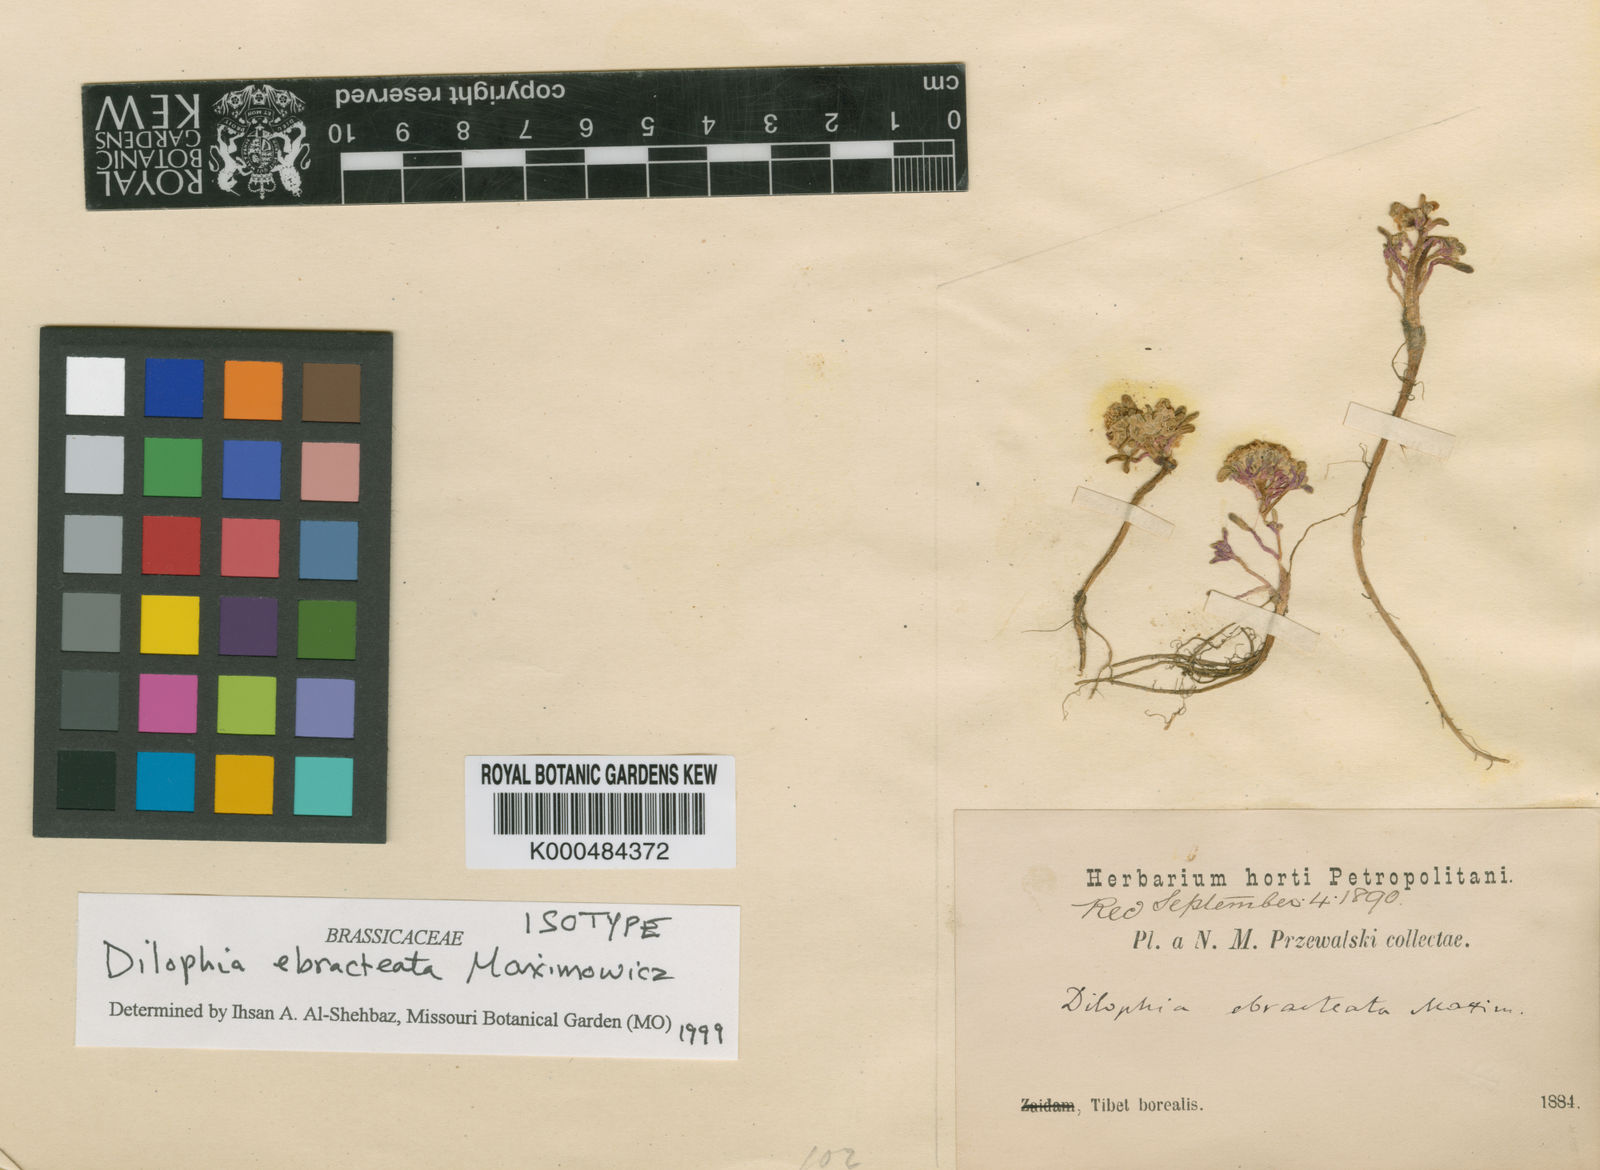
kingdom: Plantae
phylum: Tracheophyta
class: Magnoliopsida
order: Brassicales
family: Brassicaceae
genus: Dilophia
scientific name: Dilophia ebracteata
